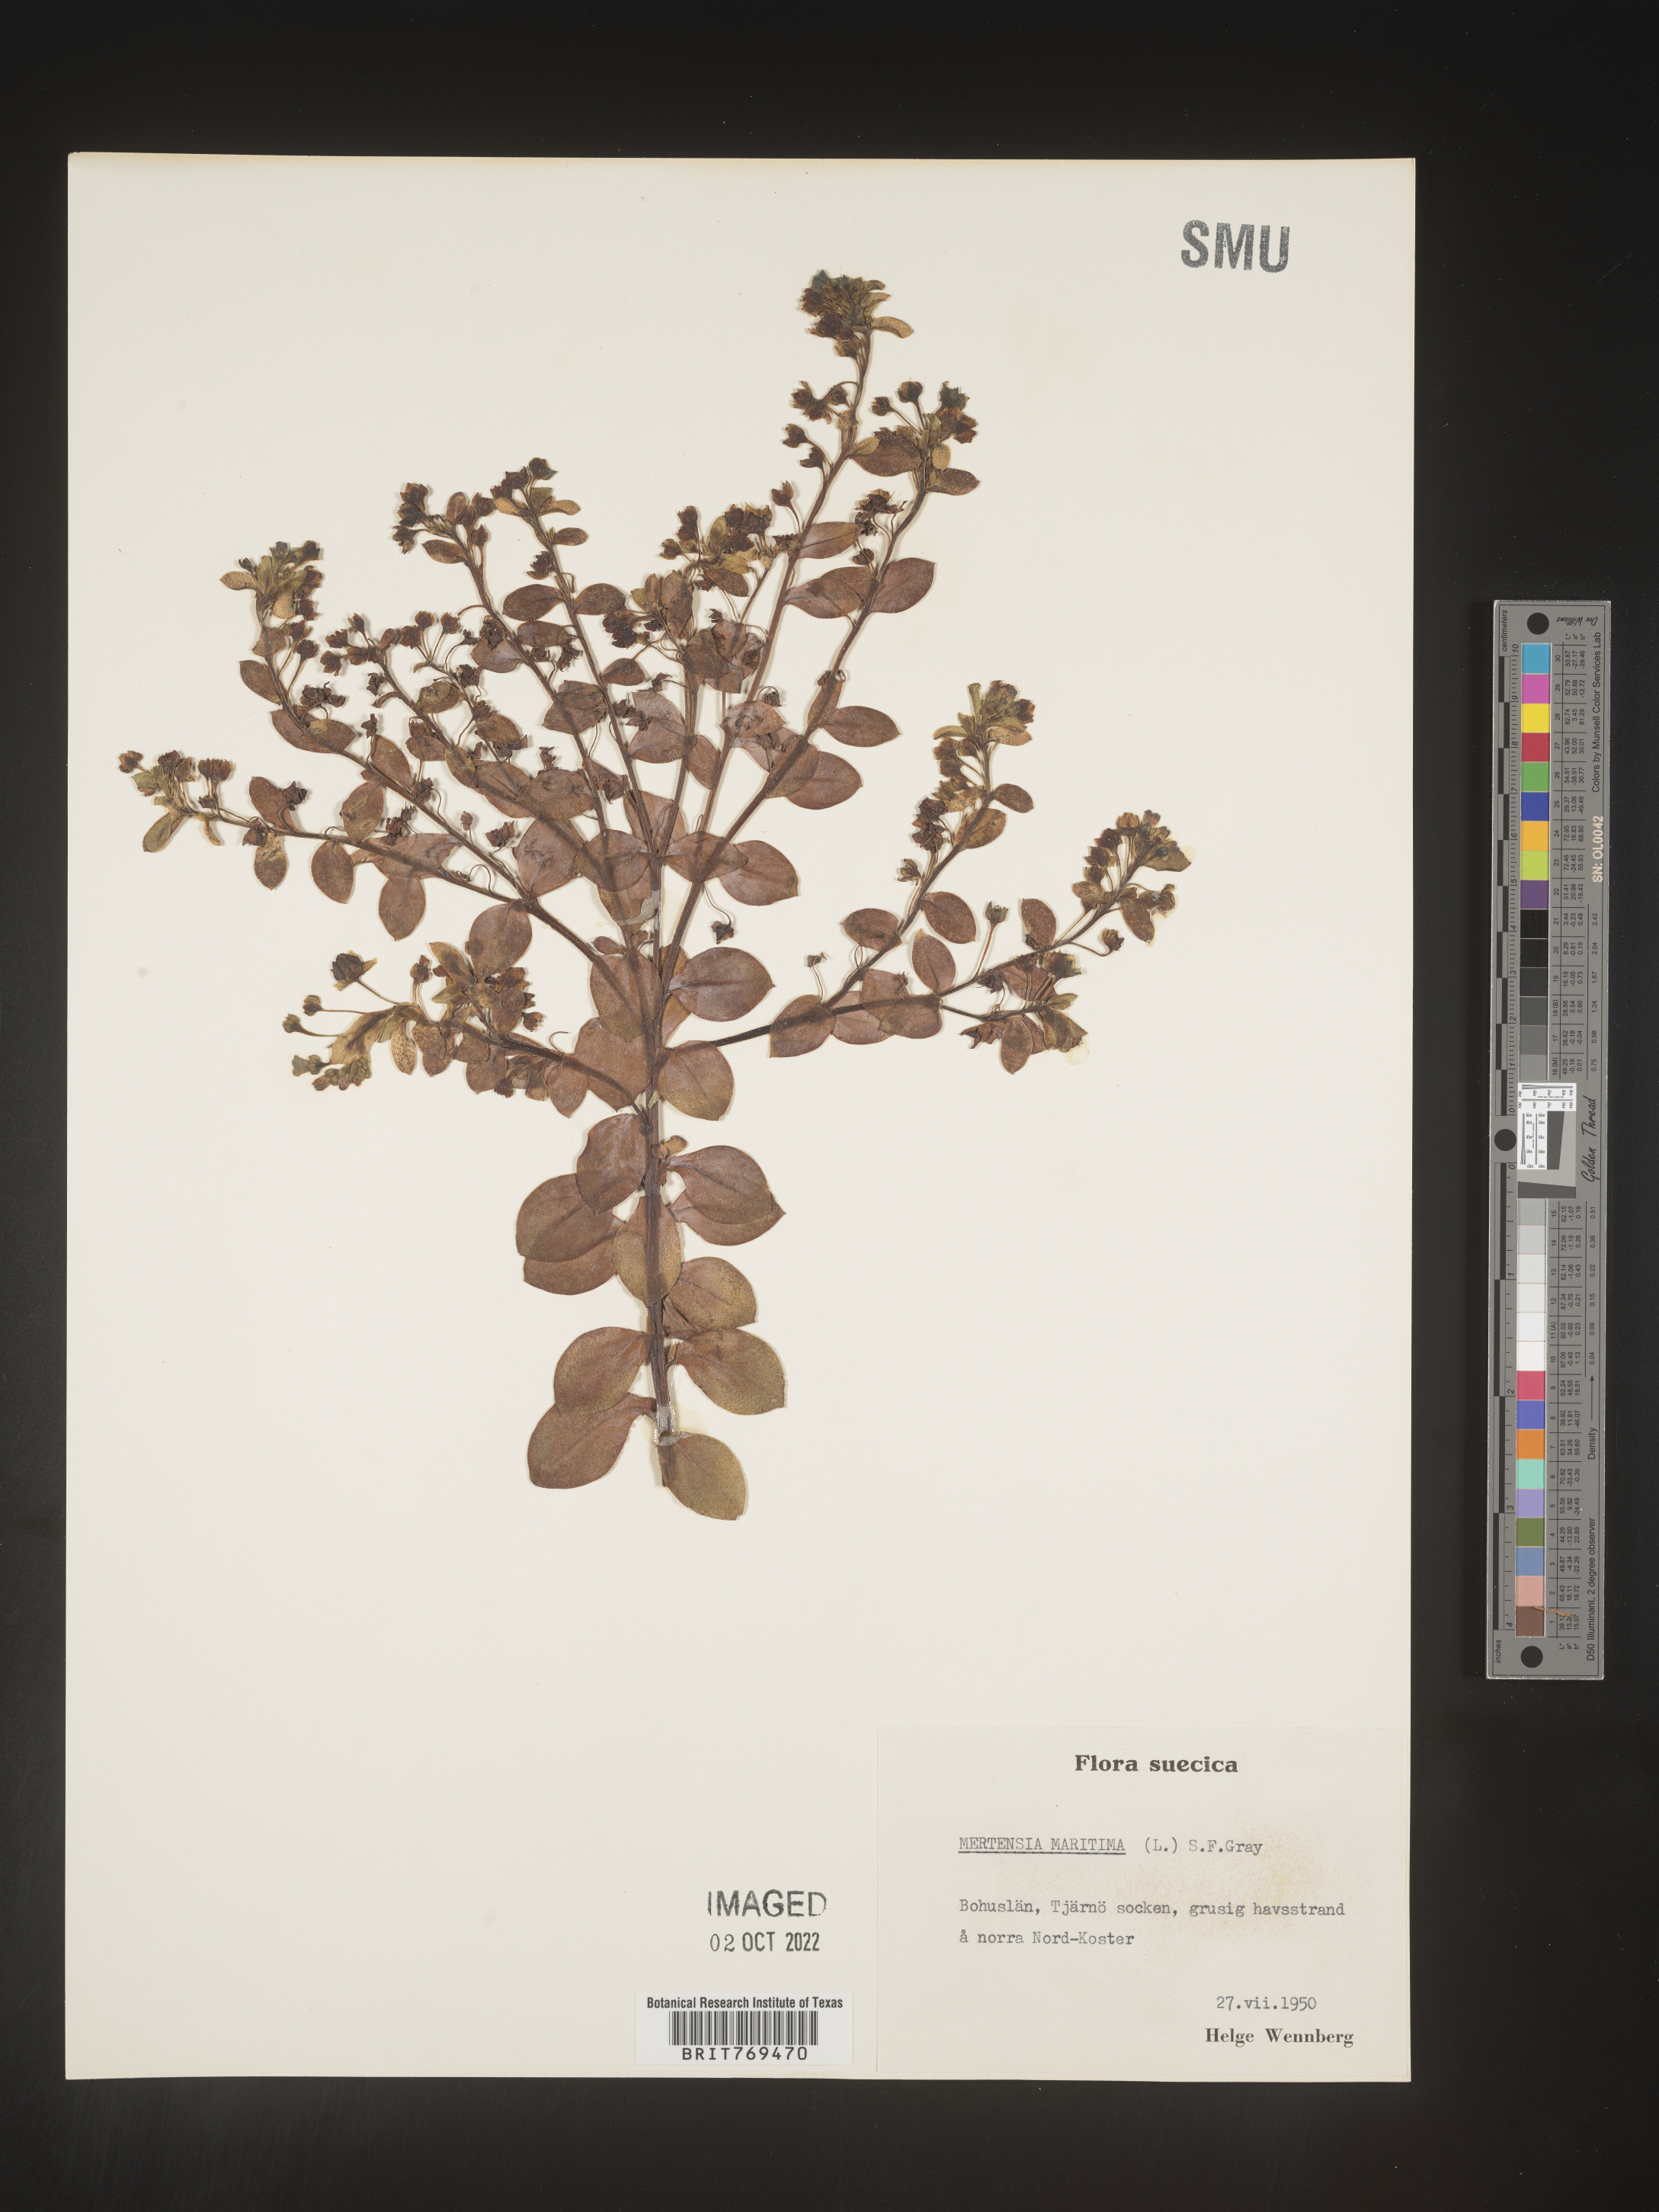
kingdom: Plantae
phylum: Tracheophyta
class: Magnoliopsida
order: Boraginales
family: Boraginaceae
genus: Mertensia
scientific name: Mertensia
